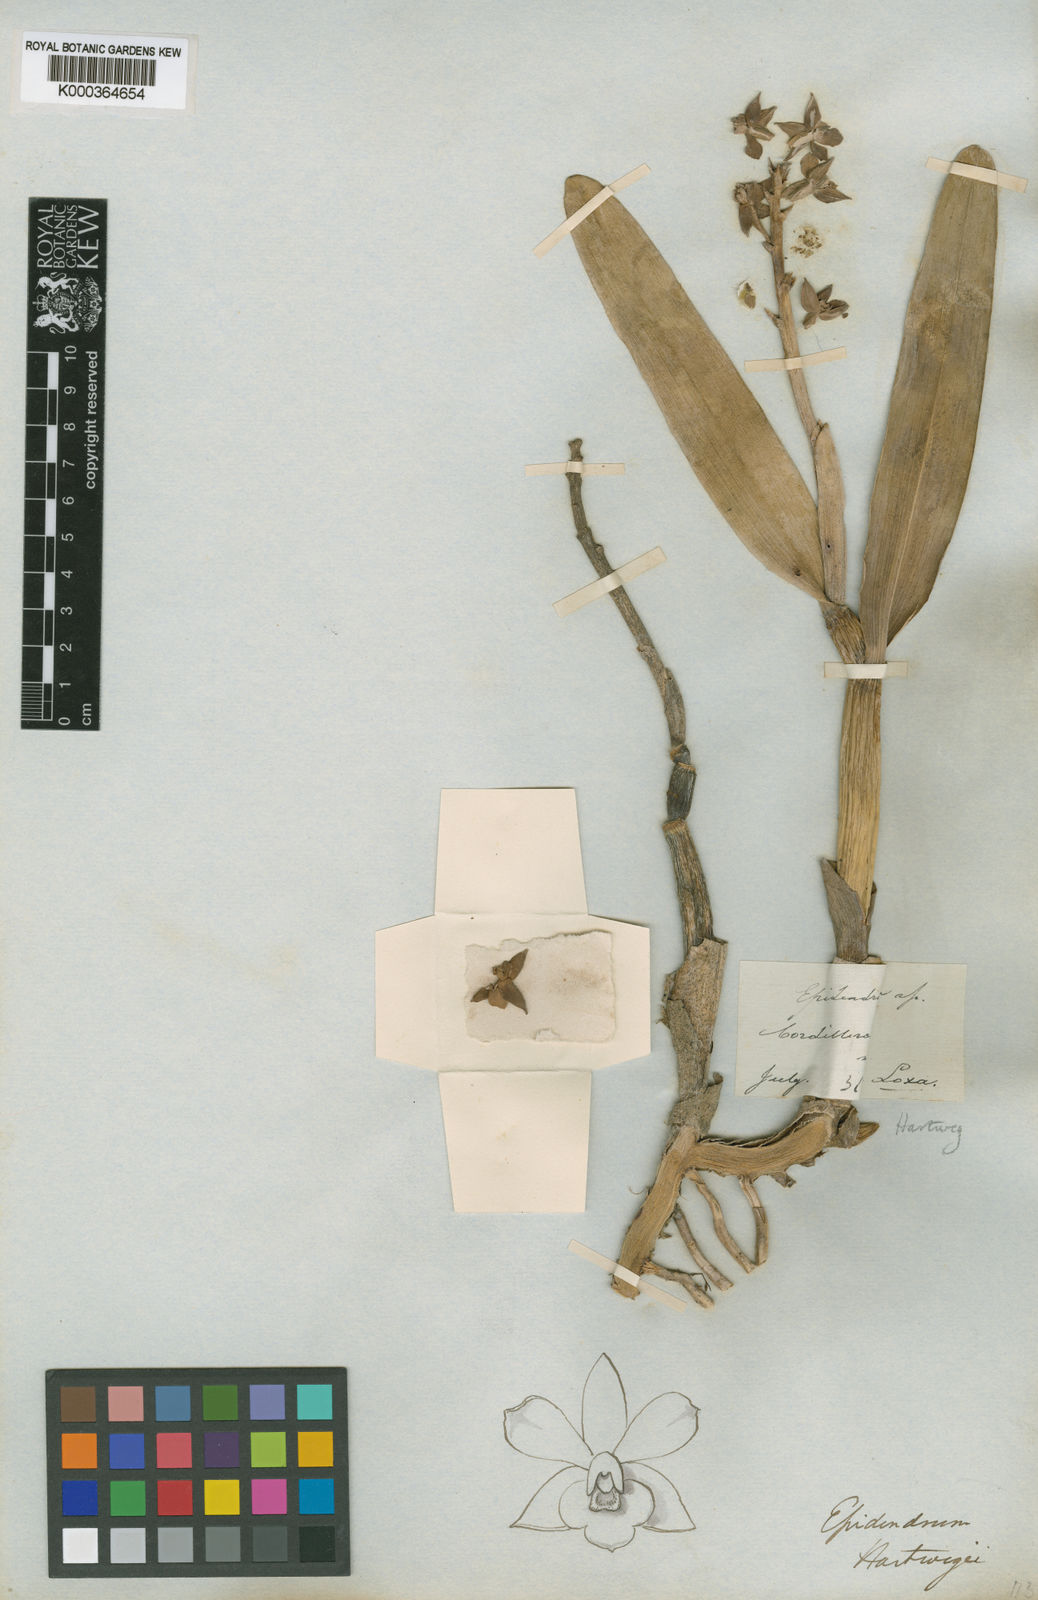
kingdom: Plantae
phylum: Tracheophyta
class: Liliopsida
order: Asparagales
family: Orchidaceae
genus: Encyclia
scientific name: Encyclia
